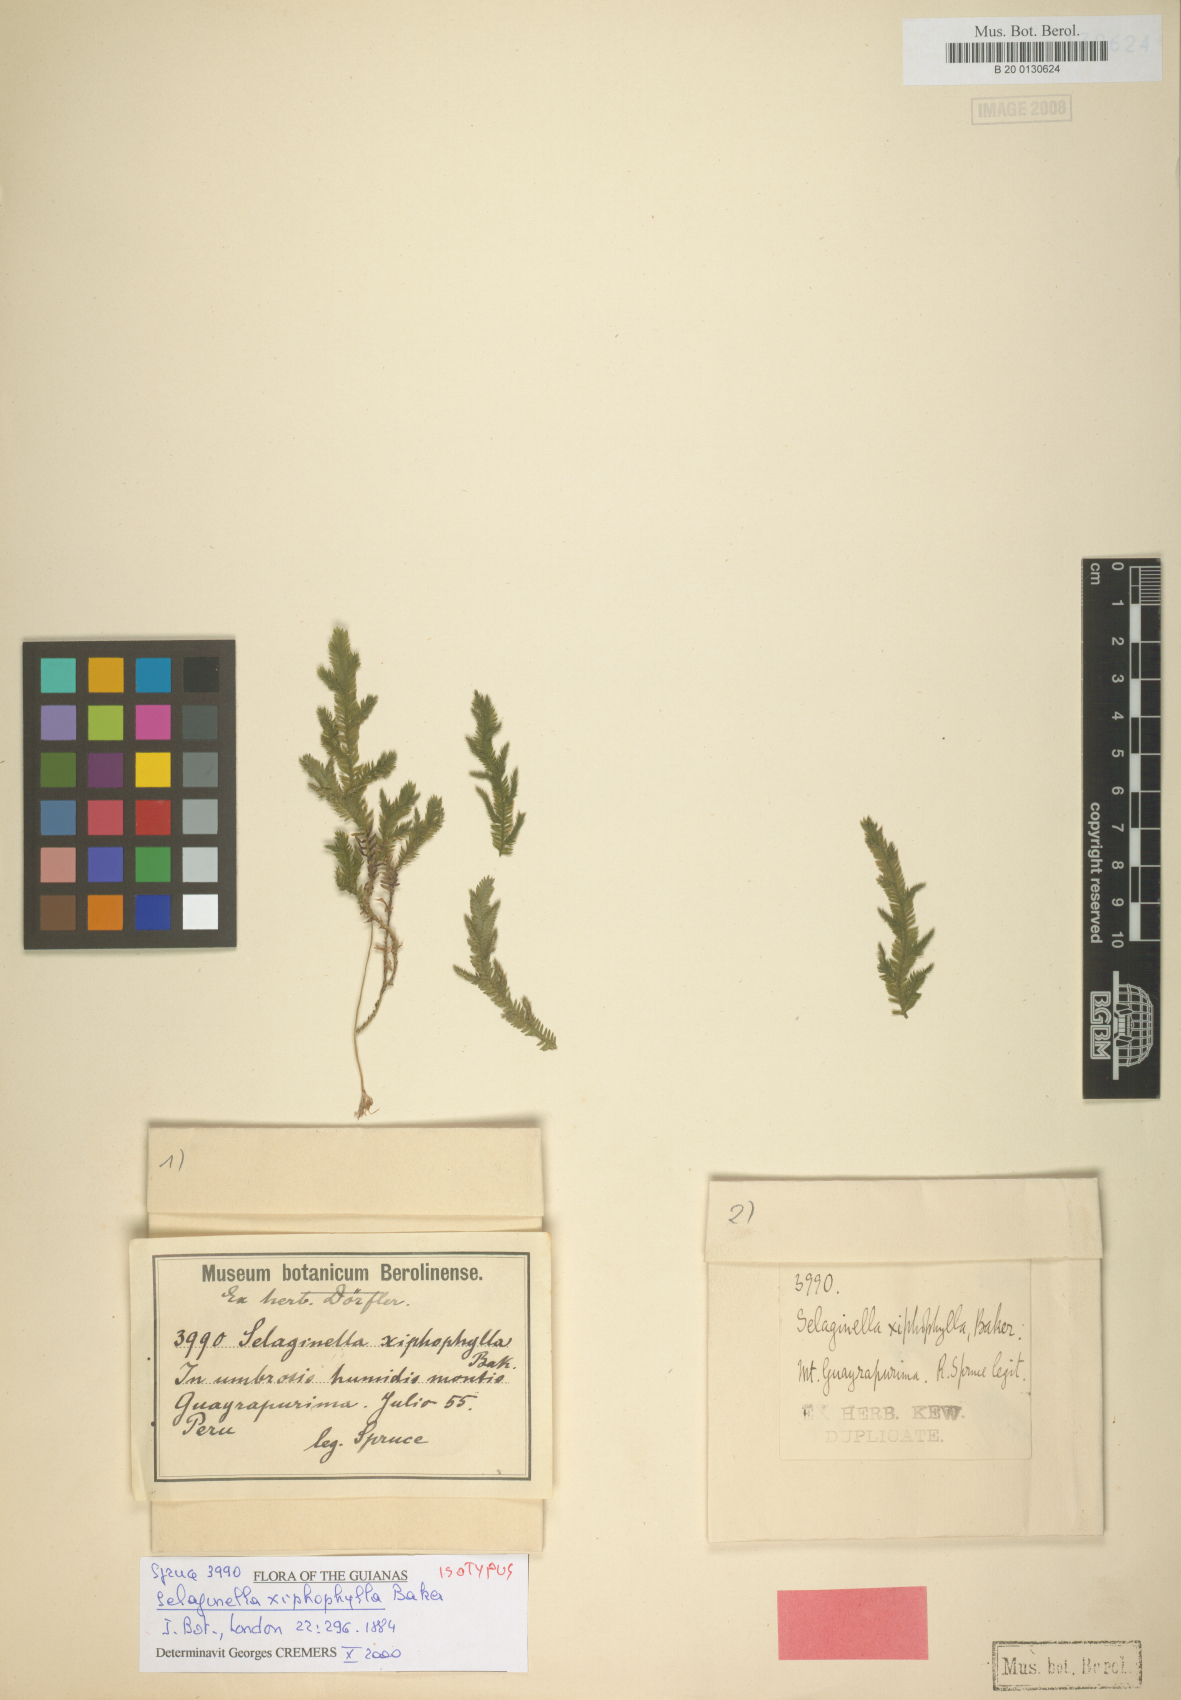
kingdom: Plantae
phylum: Tracheophyta
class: Lycopodiopsida
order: Selaginellales
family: Selaginellaceae
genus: Selaginella
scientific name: Selaginella xiphophylla
